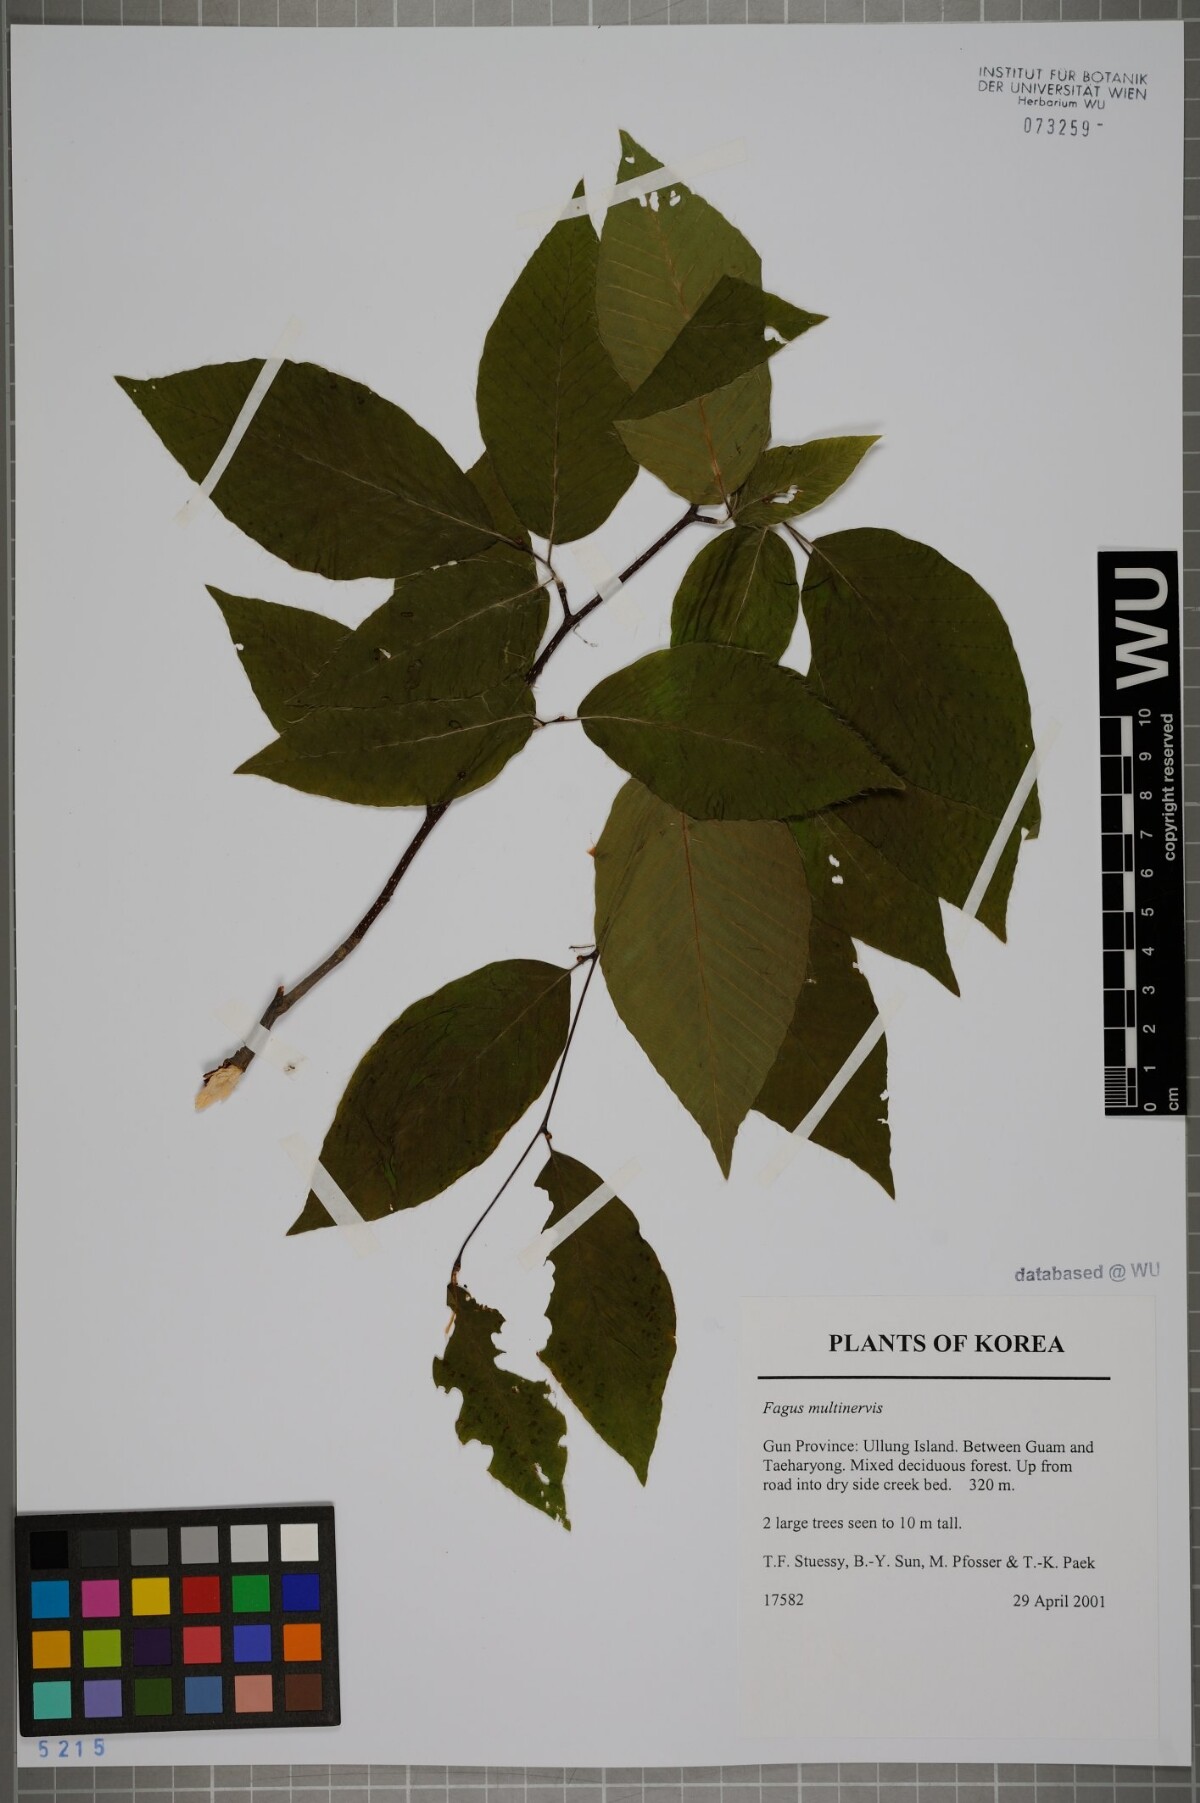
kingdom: Plantae
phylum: Tracheophyta
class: Magnoliopsida
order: Fagales
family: Fagaceae
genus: Fagus
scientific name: Fagus multinervis
